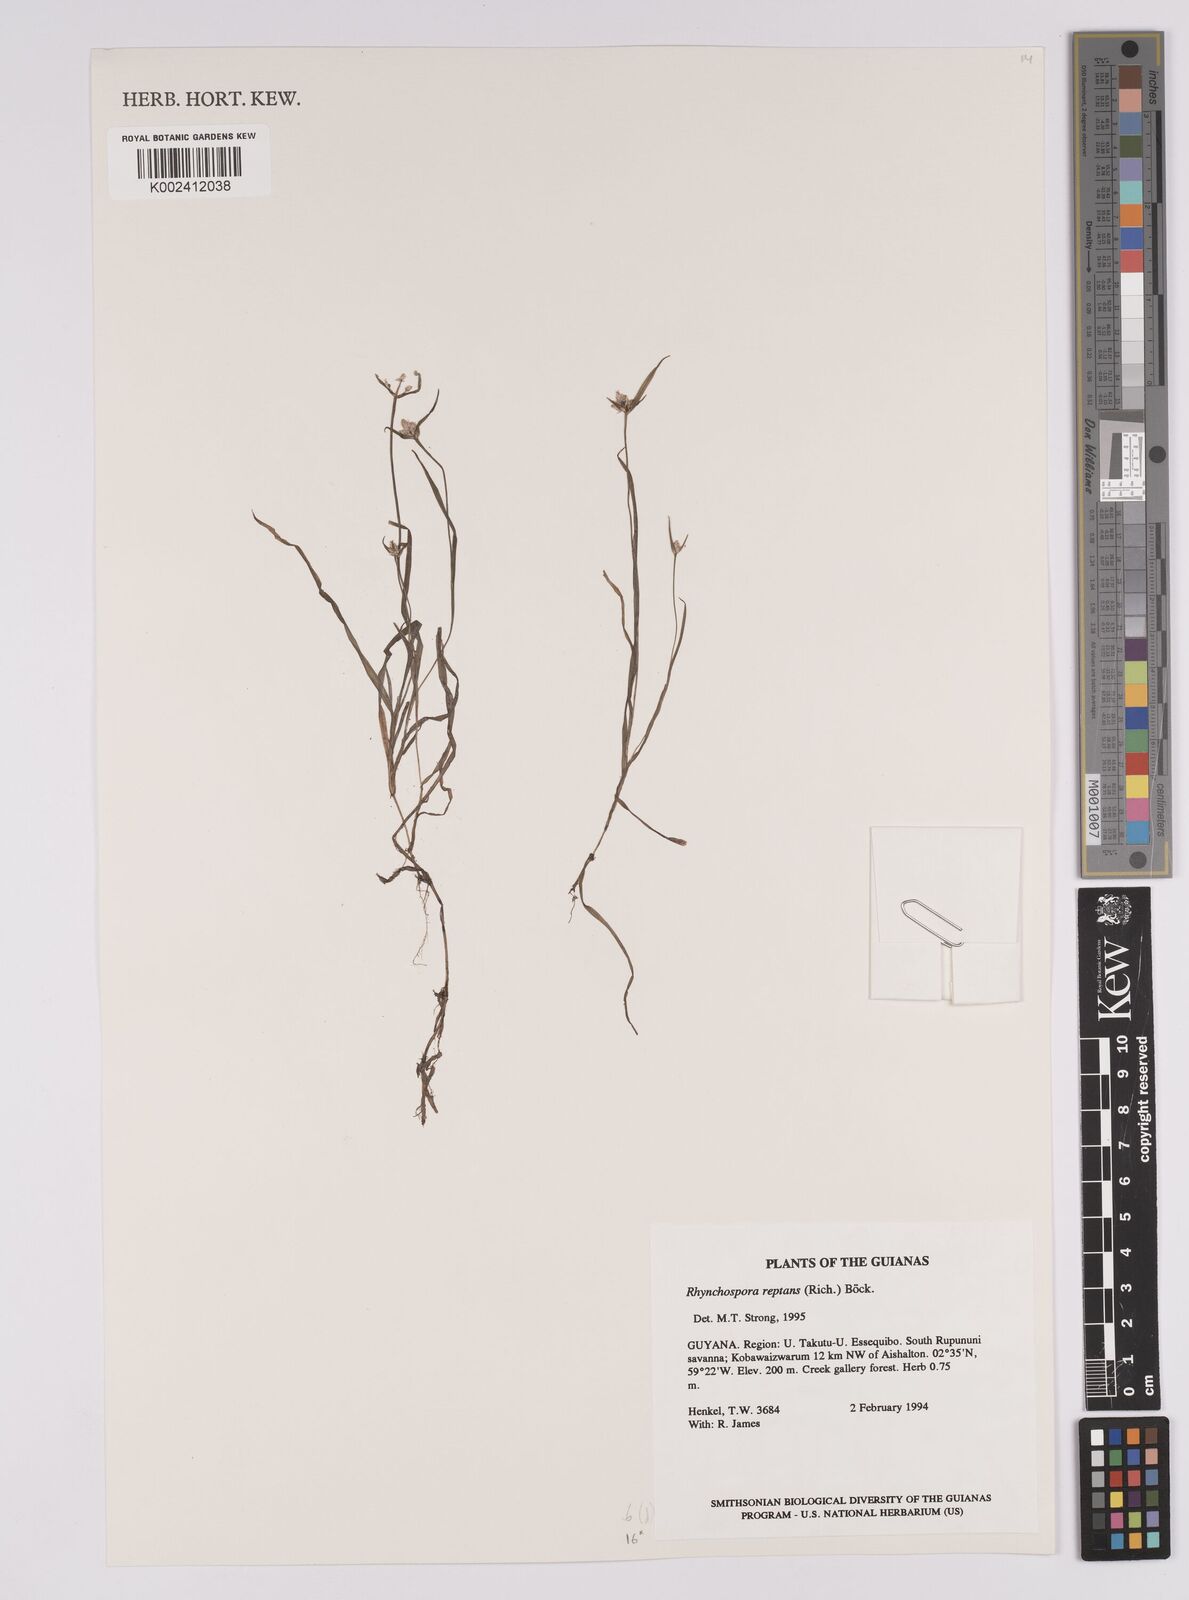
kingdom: Plantae
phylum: Tracheophyta
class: Liliopsida
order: Poales
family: Cyperaceae
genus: Rhynchospora
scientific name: Rhynchospora reptans
